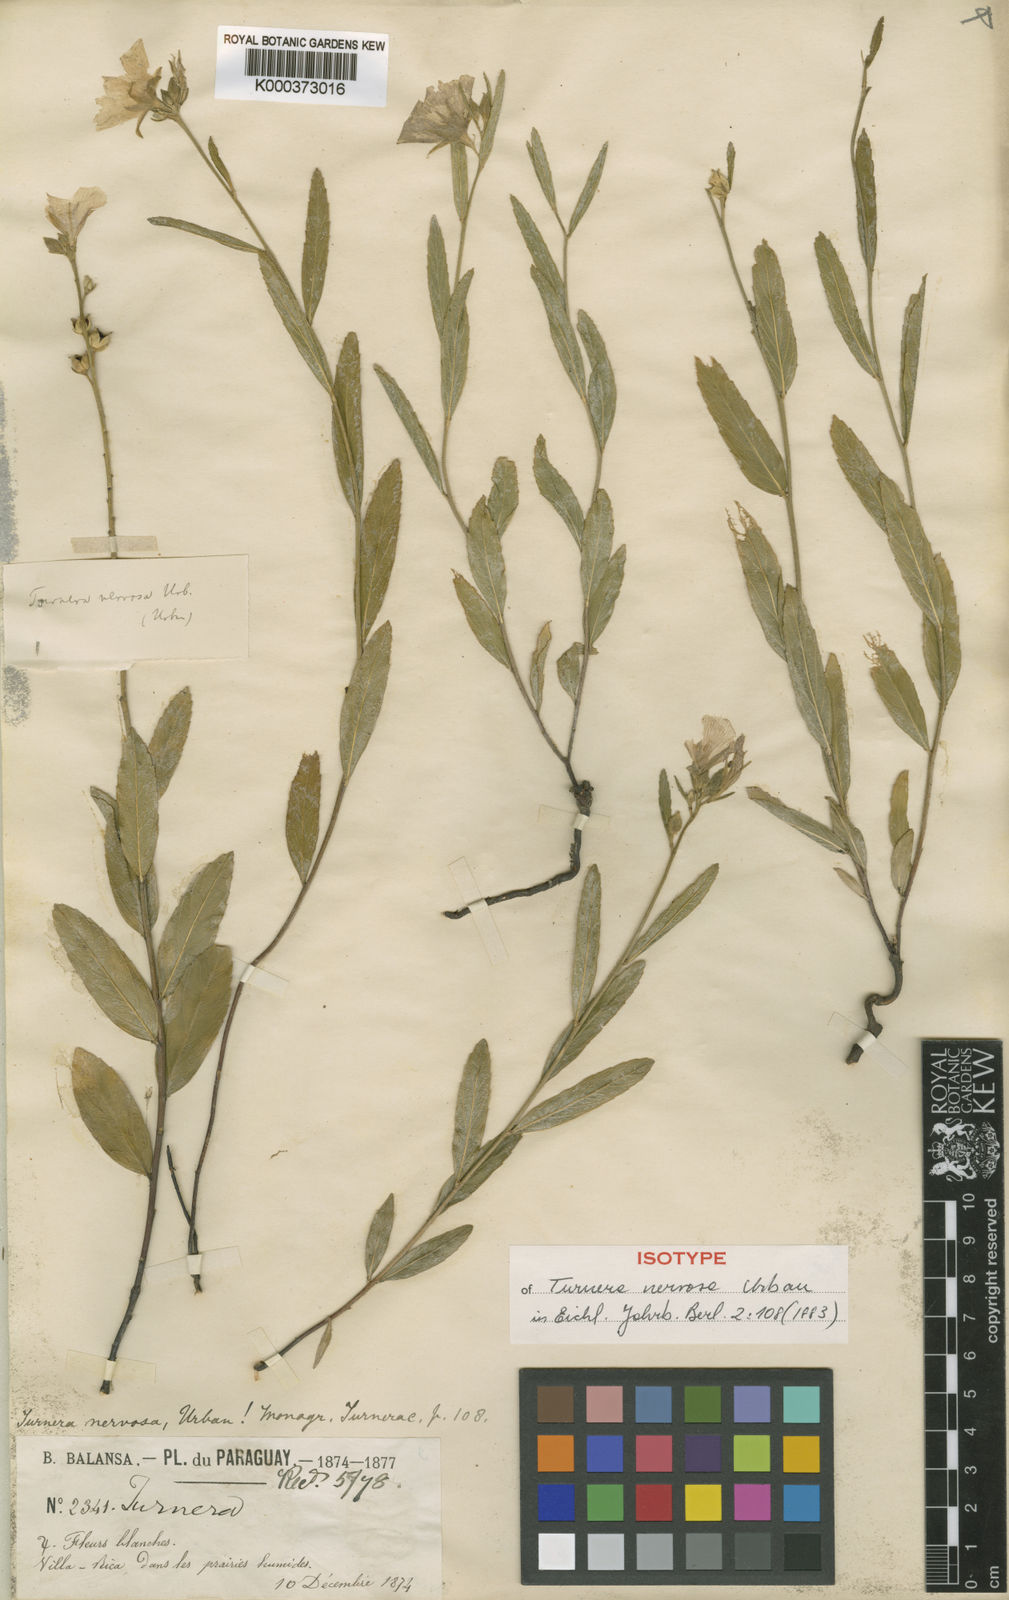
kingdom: Plantae
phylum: Tracheophyta
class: Magnoliopsida
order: Malpighiales
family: Turneraceae
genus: Turnera
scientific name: Turnera nervosa
